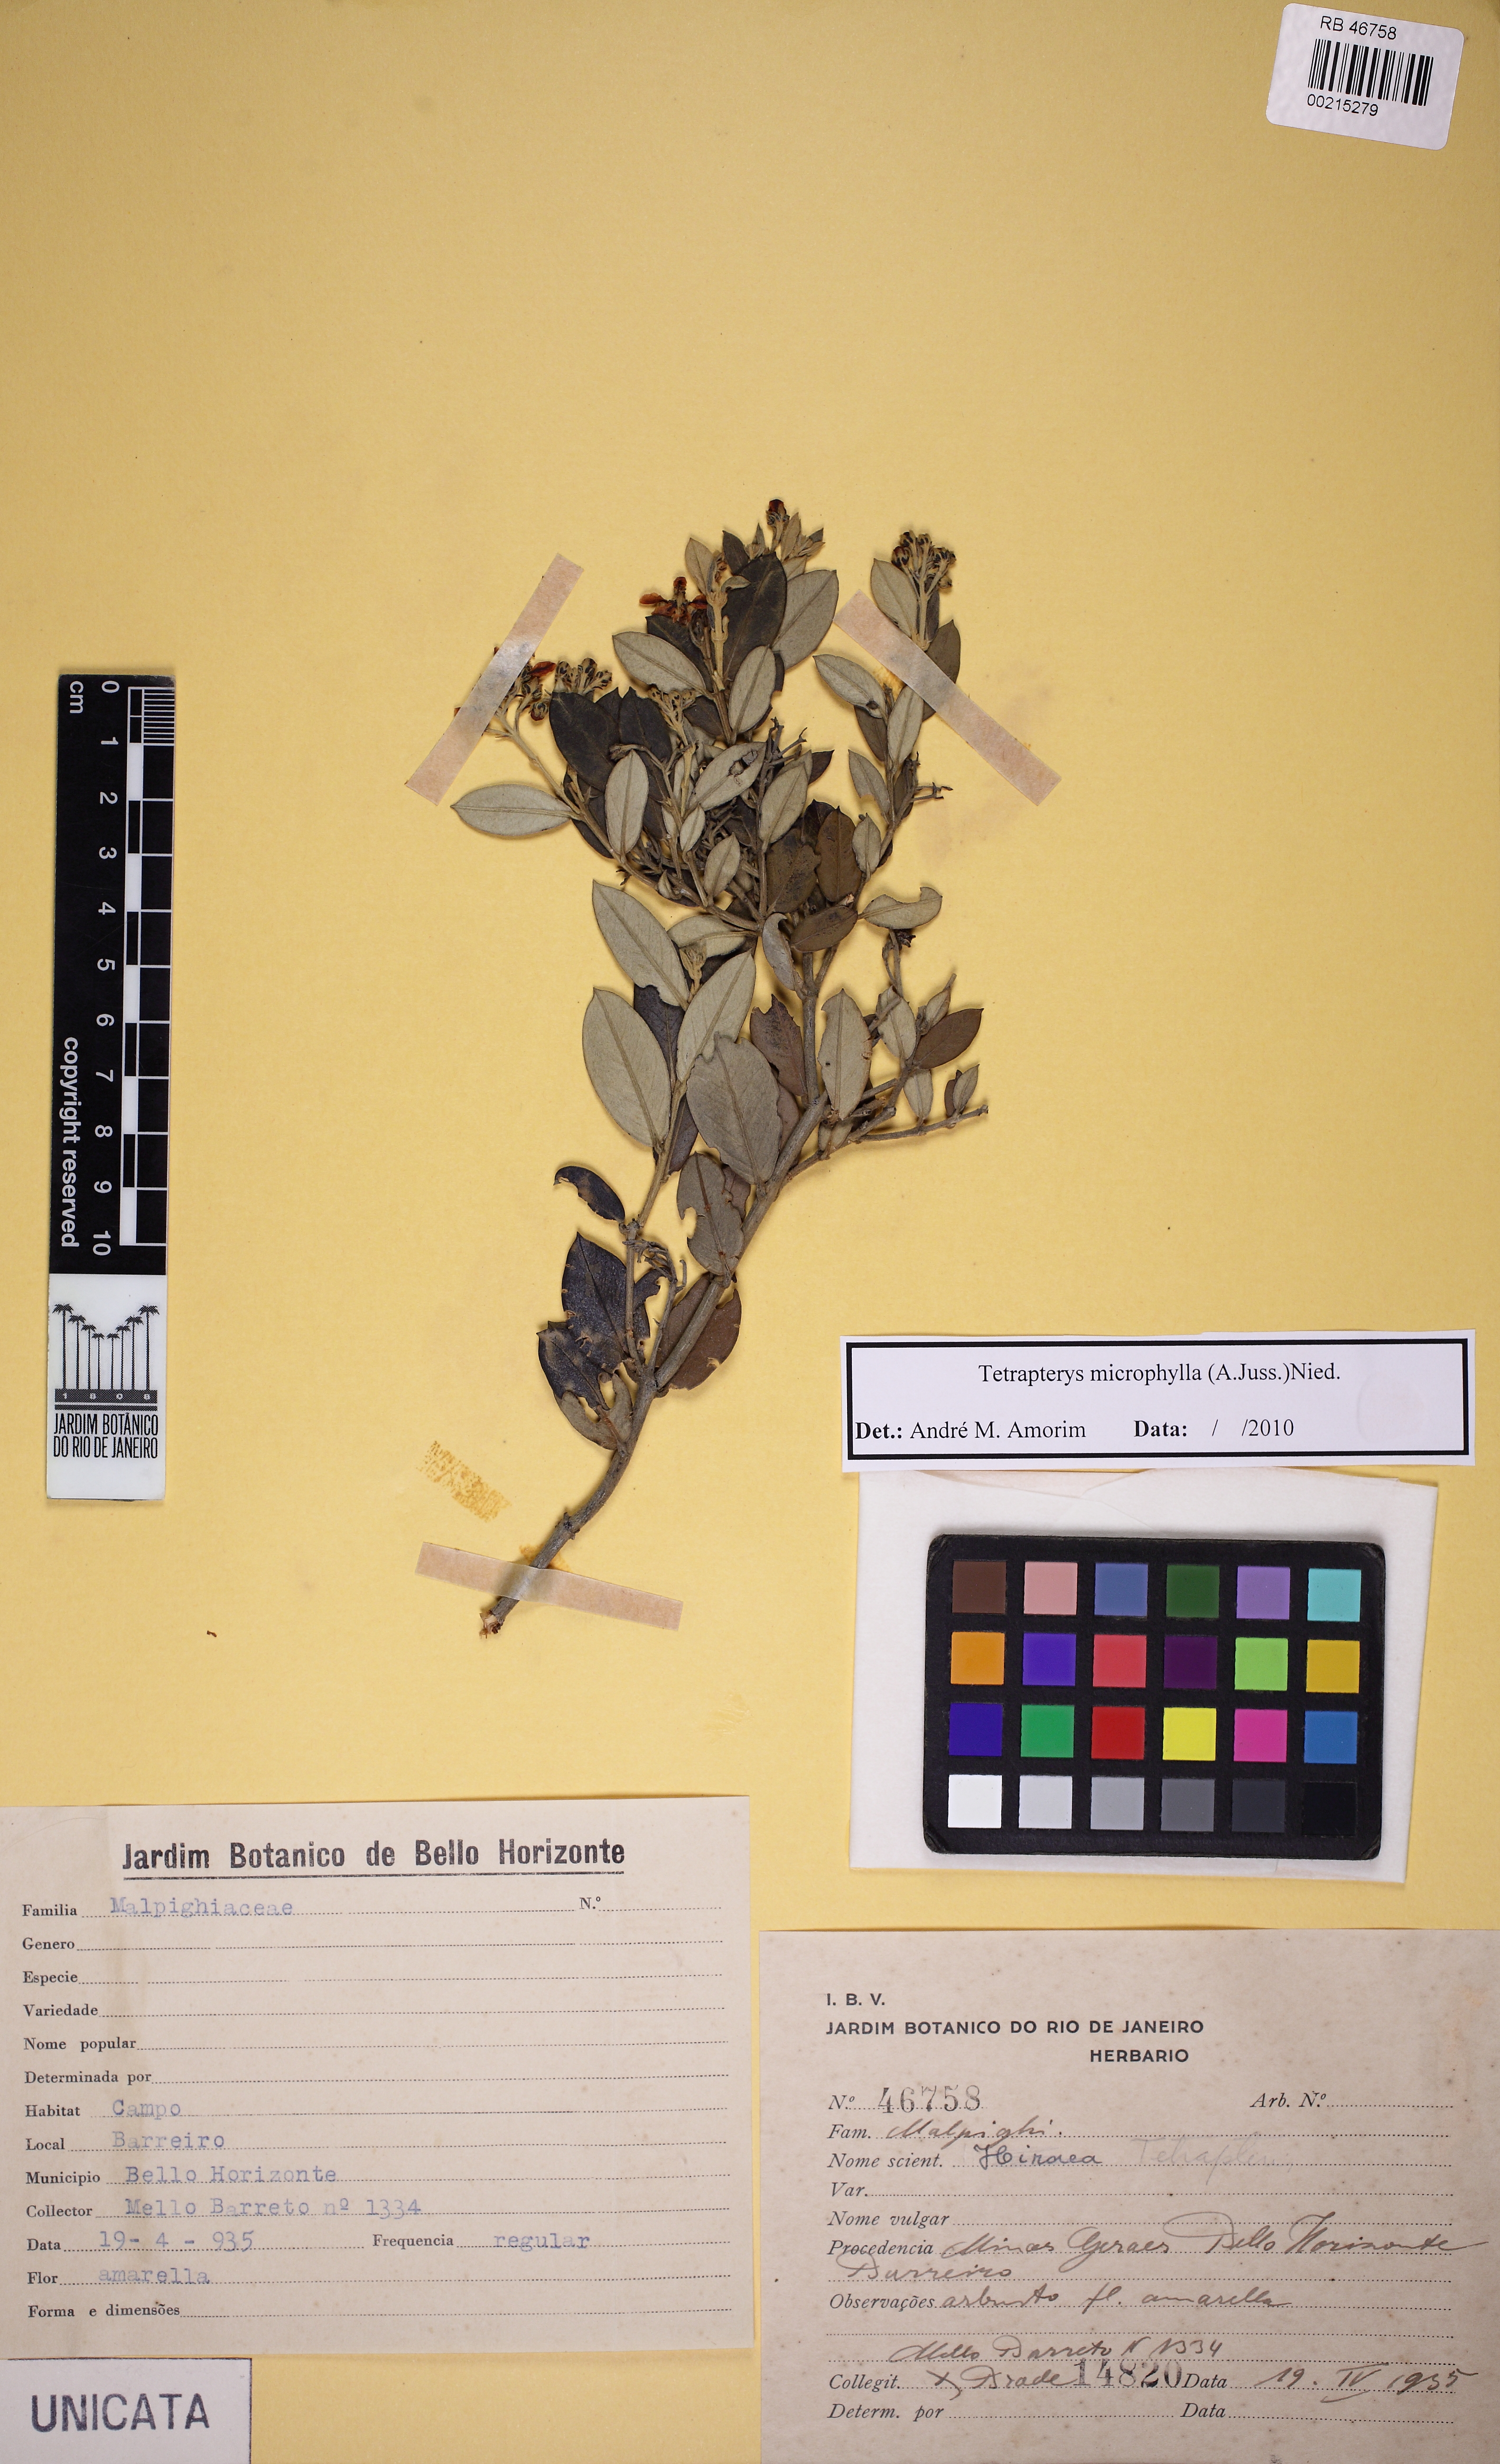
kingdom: Plantae
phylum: Tracheophyta
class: Magnoliopsida
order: Malpighiales
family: Malpighiaceae
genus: Glicophyllum
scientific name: Glicophyllum microphyllum
